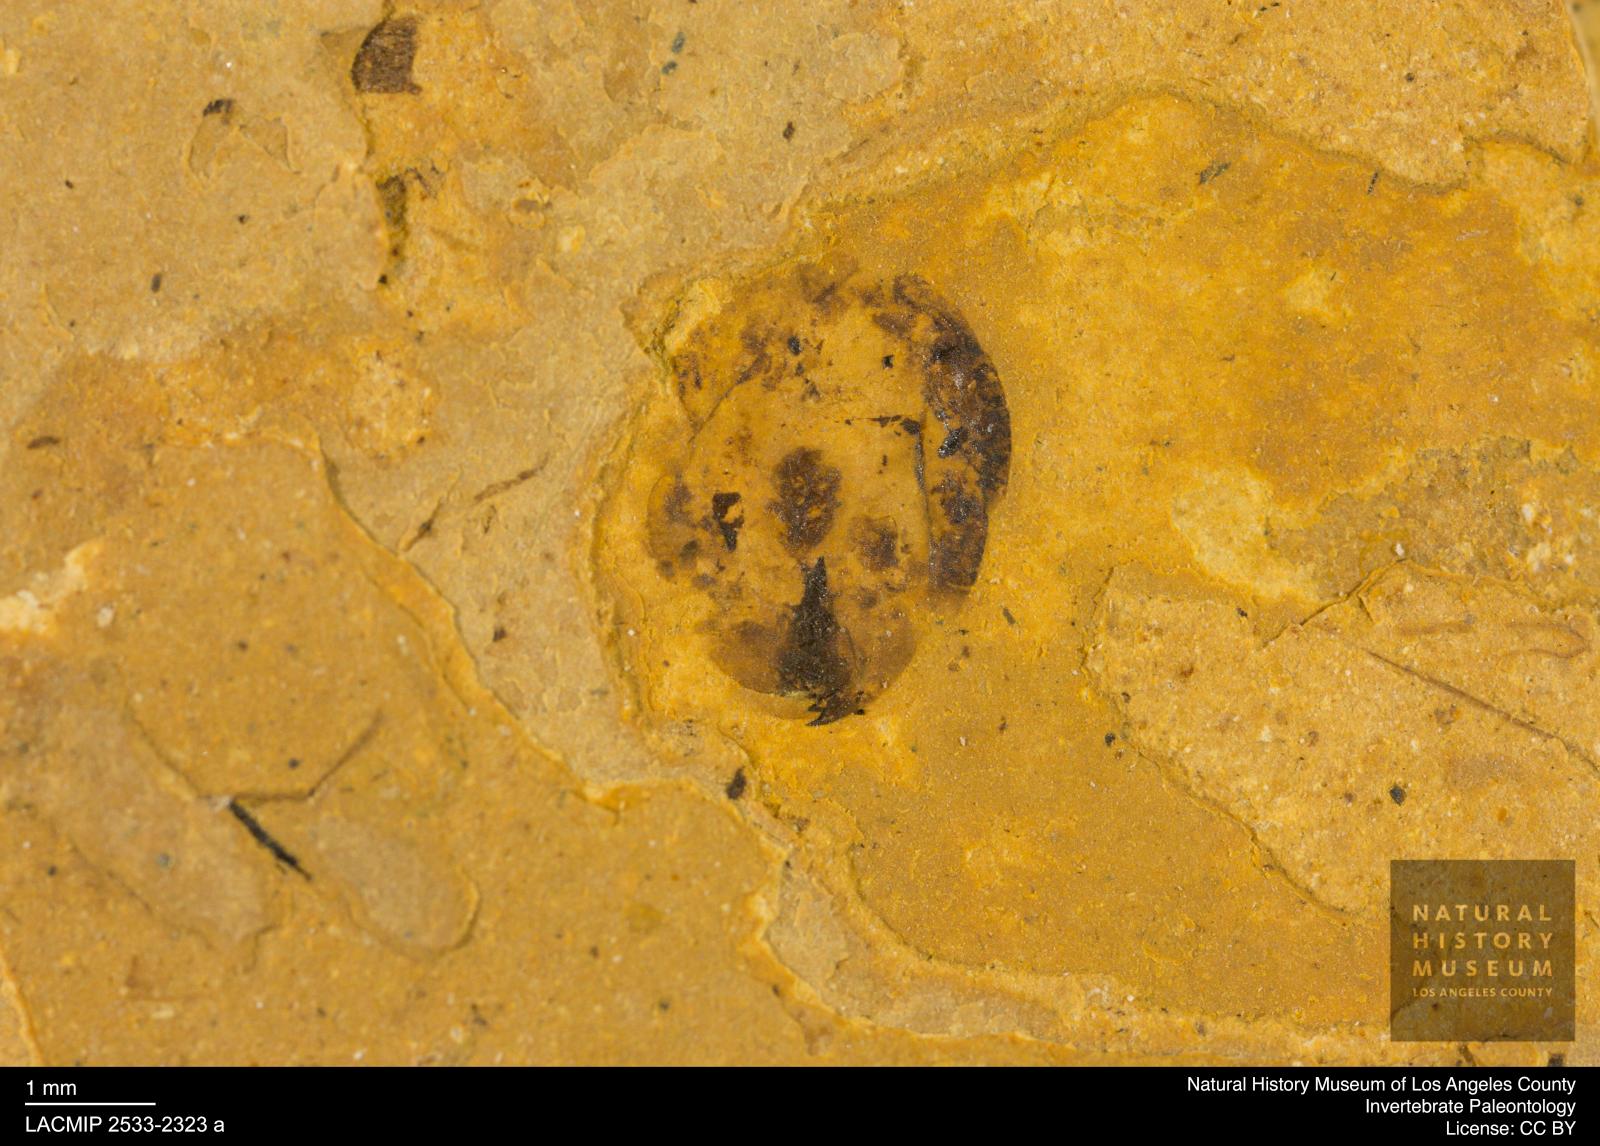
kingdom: Animalia
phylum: Arthropoda
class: Insecta
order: Hymenoptera
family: Formicidae
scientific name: Formicidae
